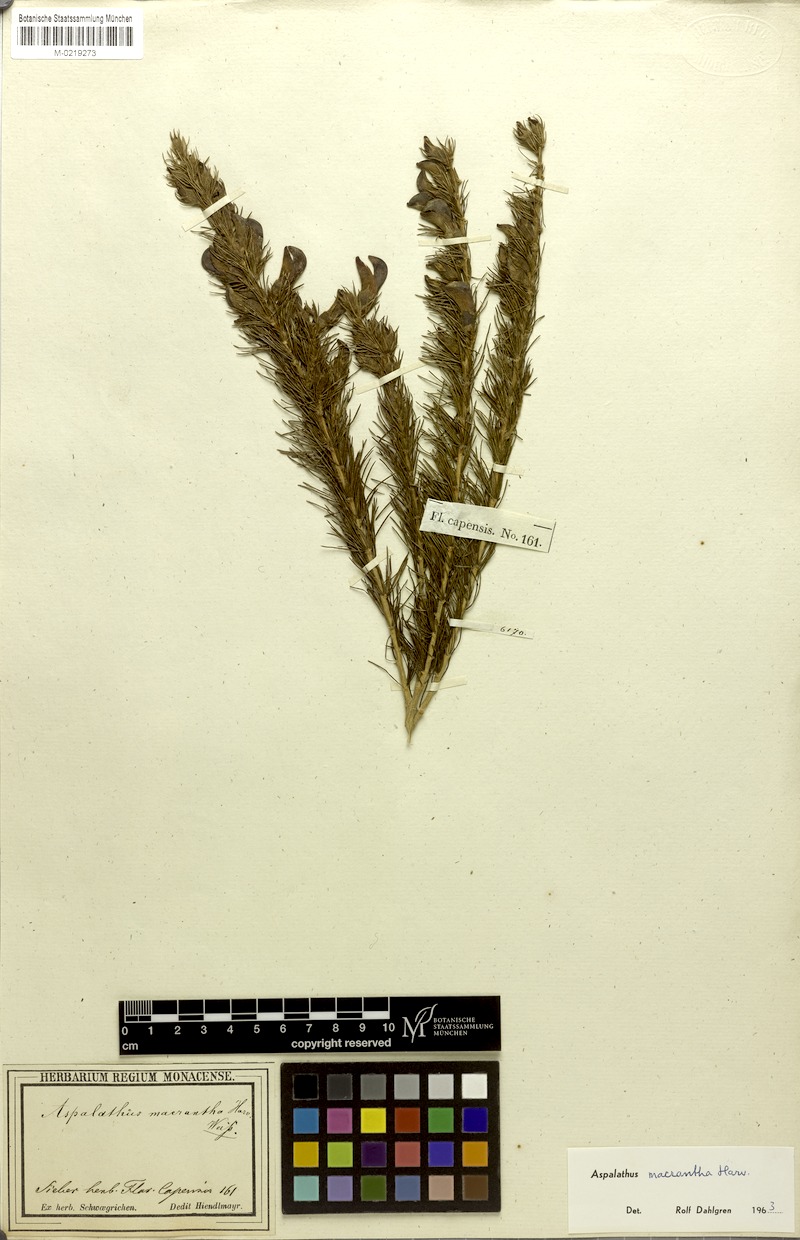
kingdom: Plantae
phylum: Tracheophyta
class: Magnoliopsida
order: Fabales
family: Fabaceae
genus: Aspalathus
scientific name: Aspalathus macrantha
